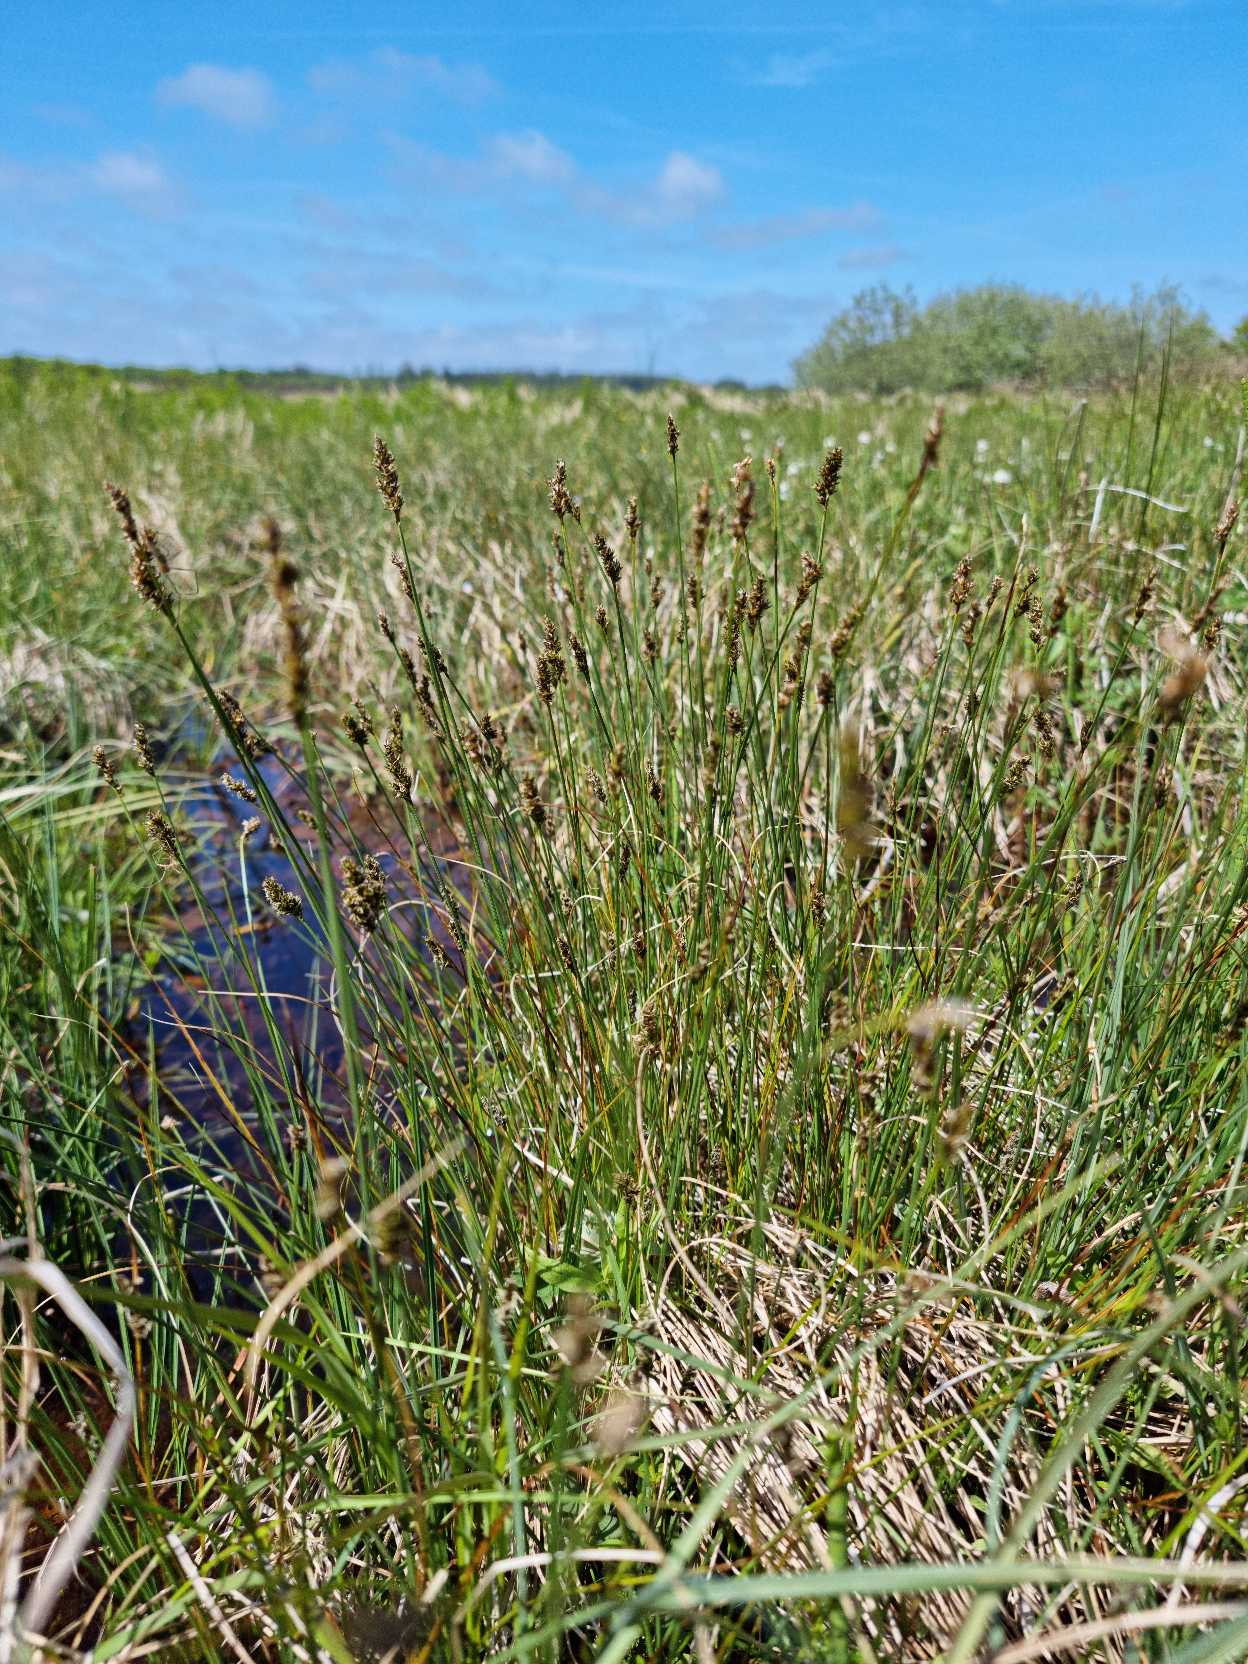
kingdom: Plantae
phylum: Tracheophyta
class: Liliopsida
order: Poales
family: Cyperaceae
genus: Carex
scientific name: Carex diandra
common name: Trindstænglet star
